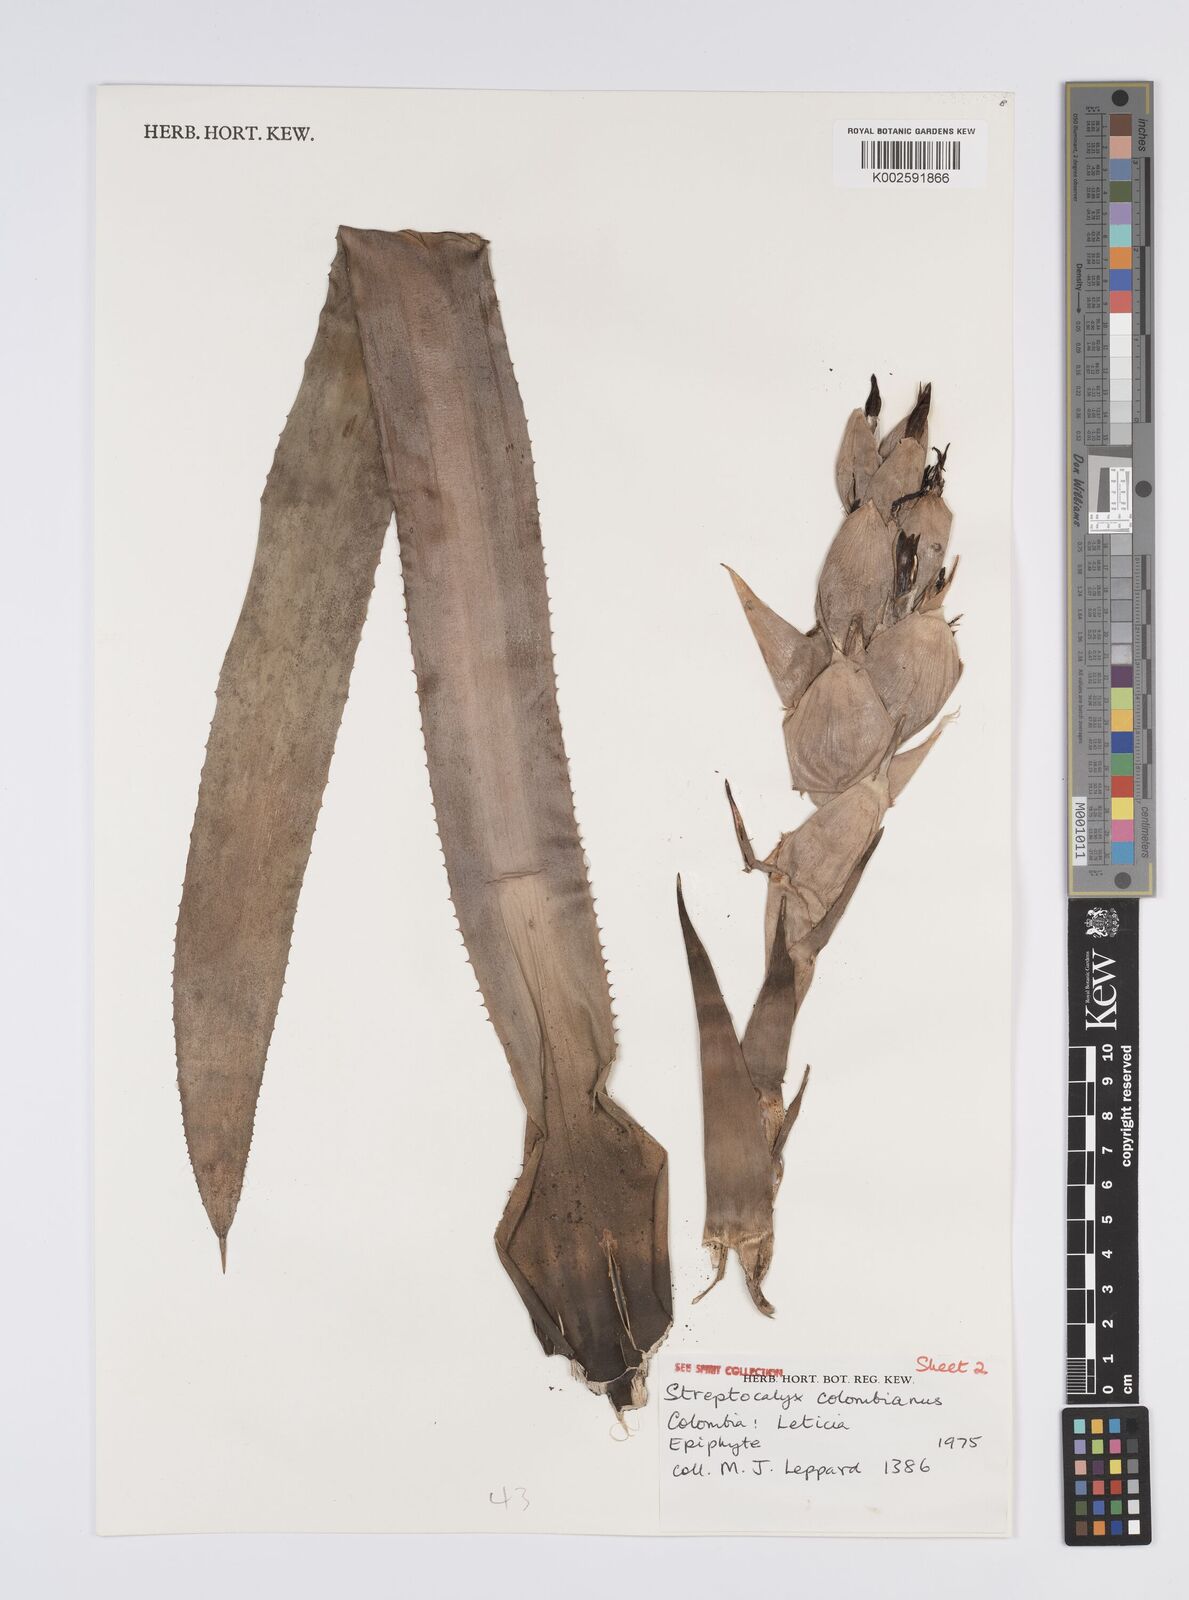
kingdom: Plantae
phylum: Tracheophyta
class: Liliopsida
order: Poales
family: Bromeliaceae
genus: Aechmea
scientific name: Aechmea colombiana
